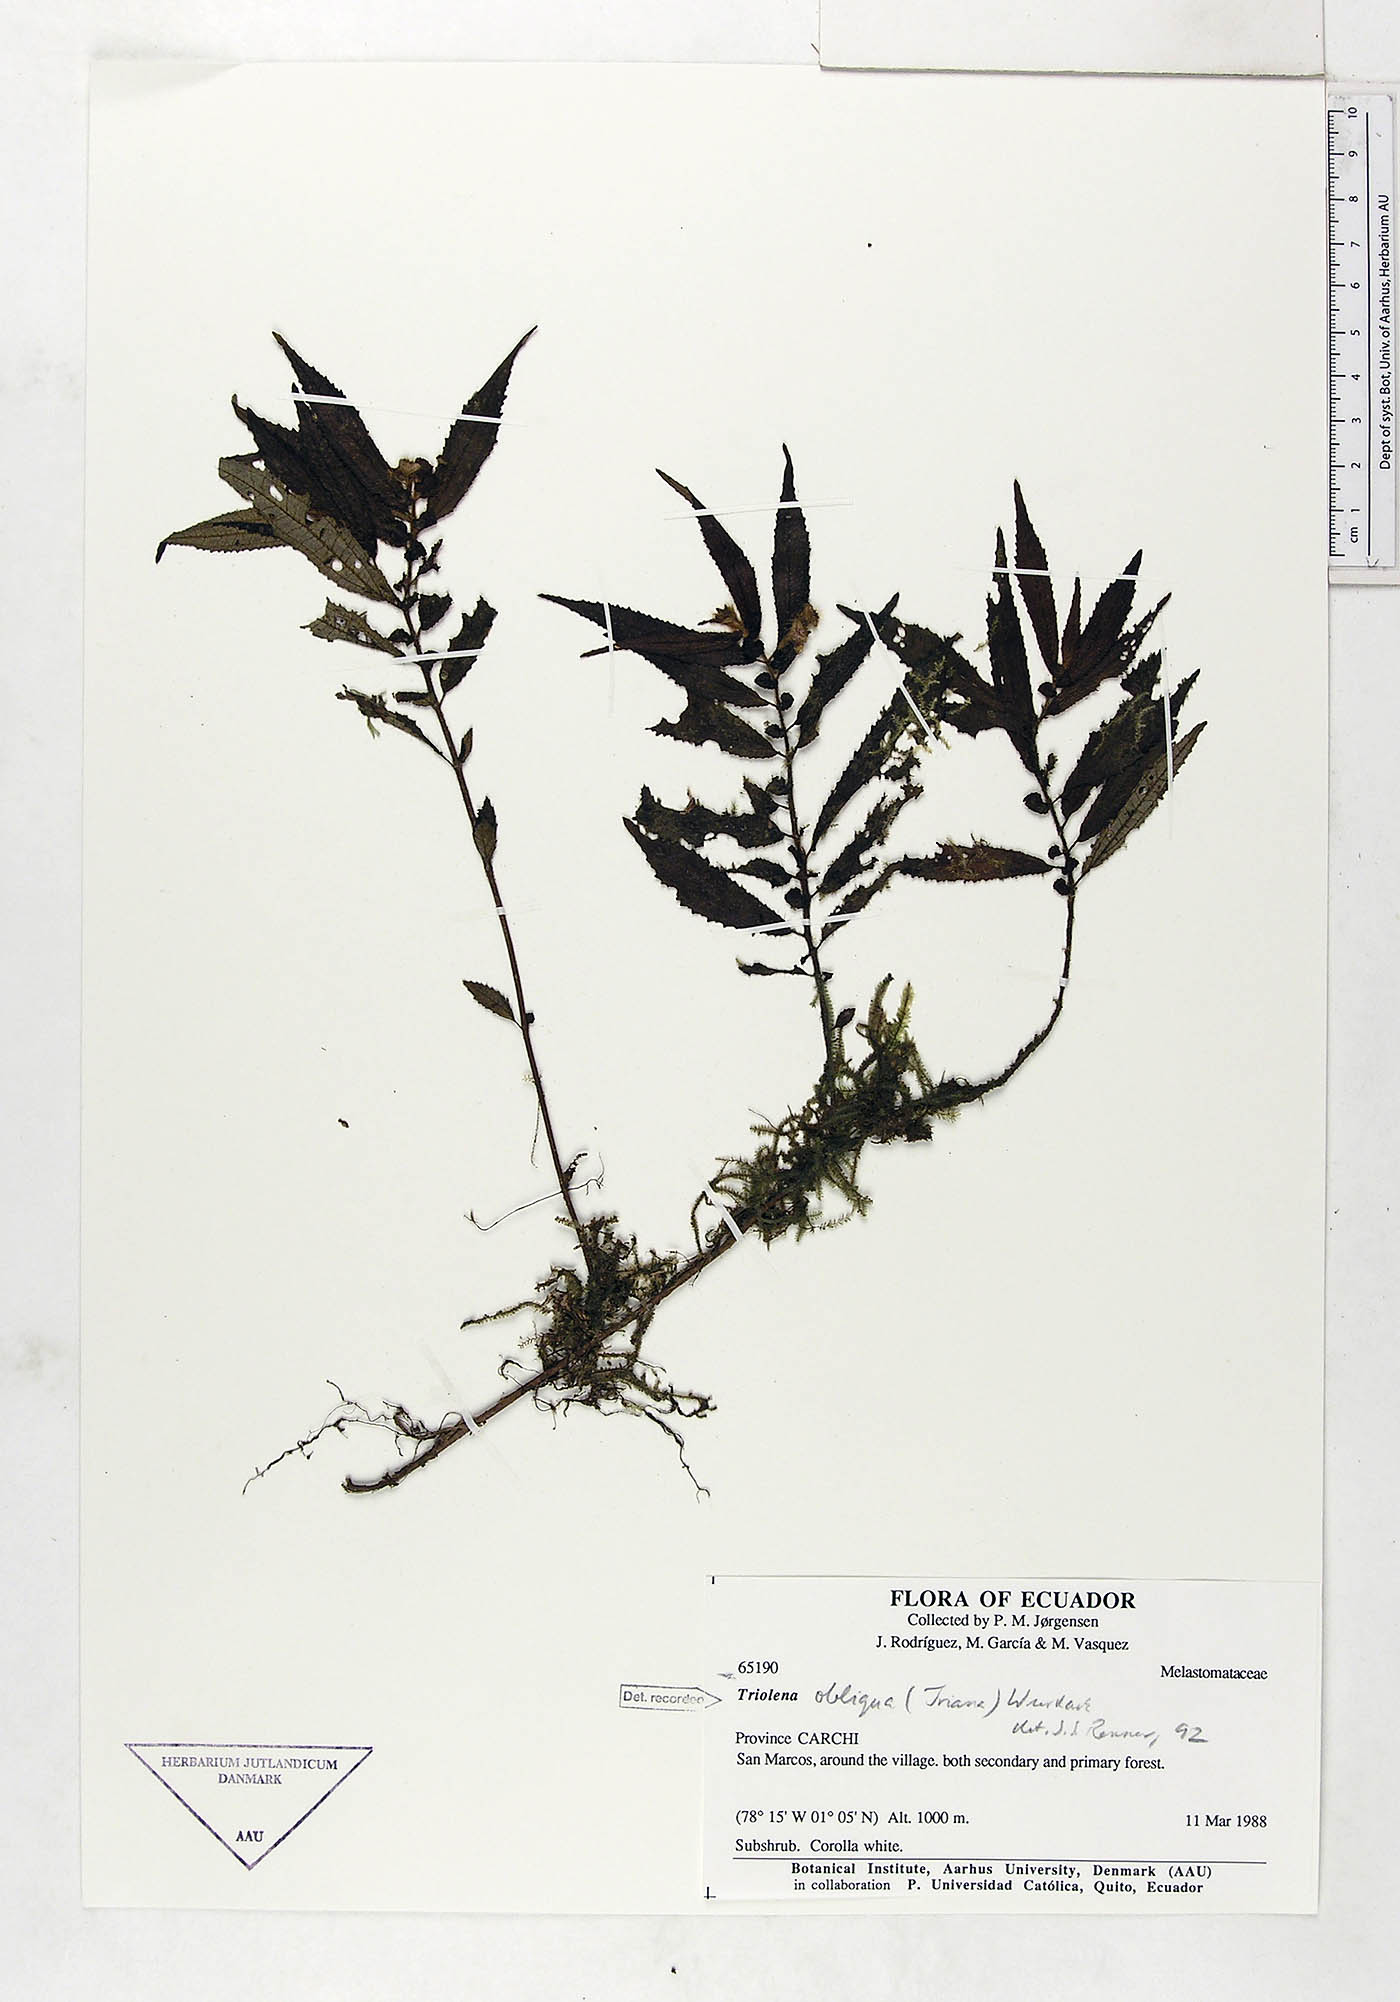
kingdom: Plantae
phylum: Tracheophyta
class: Magnoliopsida
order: Myrtales
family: Melastomataceae
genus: Triolena
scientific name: Triolena obliqua
